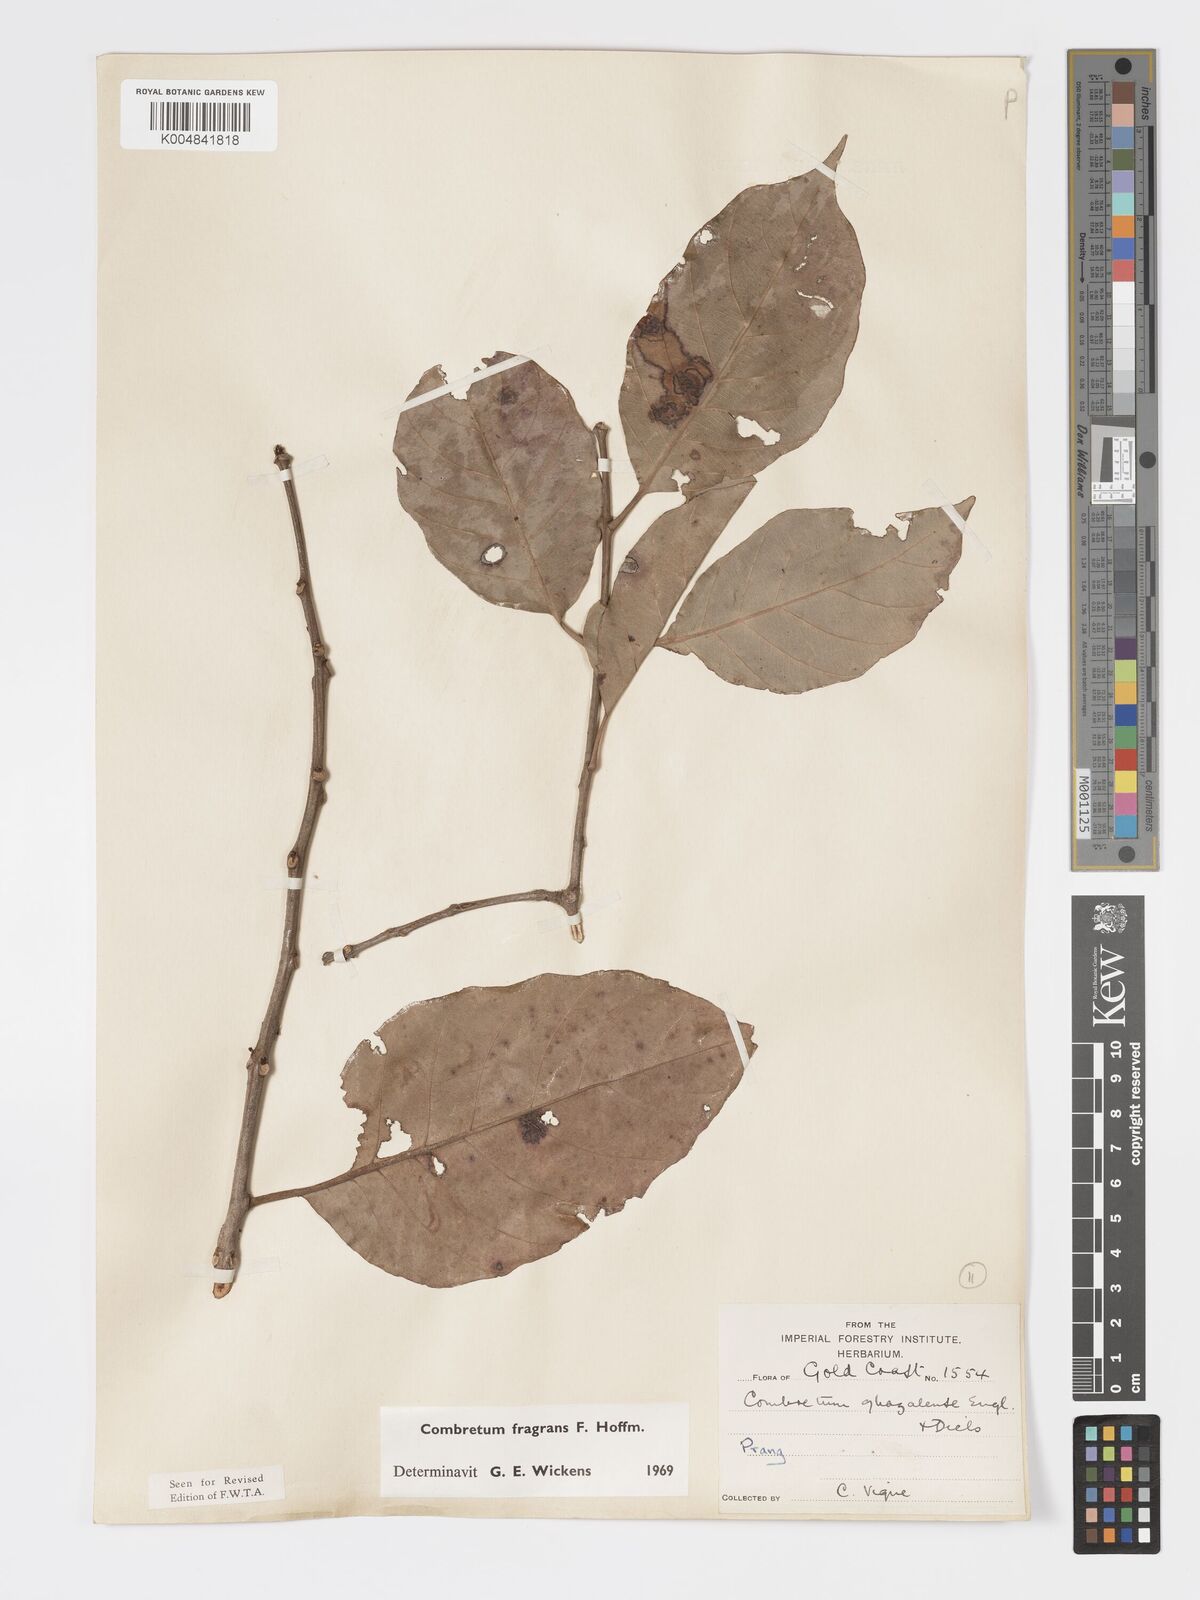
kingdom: Plantae
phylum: Tracheophyta
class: Magnoliopsida
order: Myrtales
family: Combretaceae
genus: Combretum
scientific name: Combretum adenogonium
